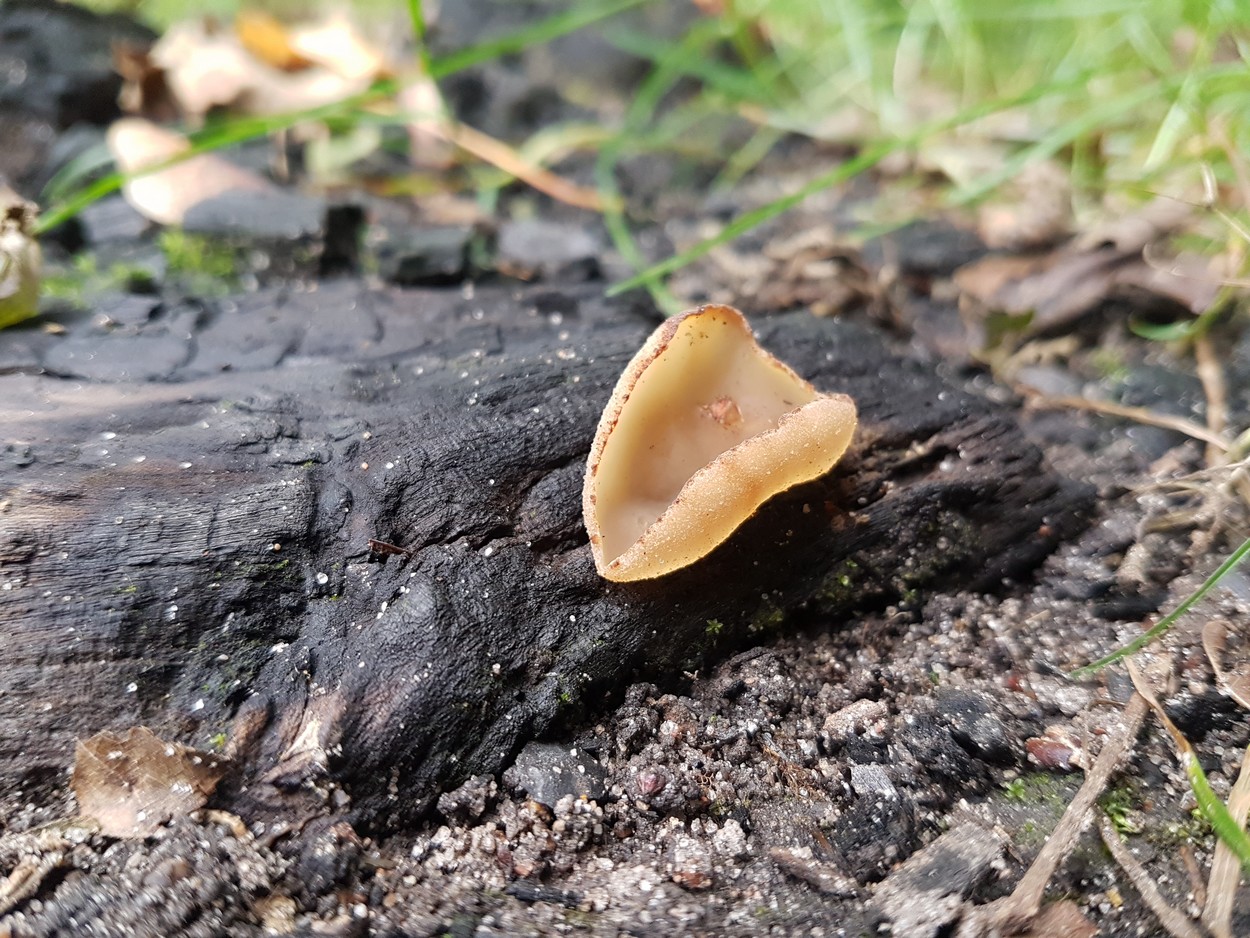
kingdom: Fungi
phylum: Ascomycota
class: Pezizomycetes
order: Pezizales
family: Pezizaceae
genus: Peziza
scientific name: Peziza
